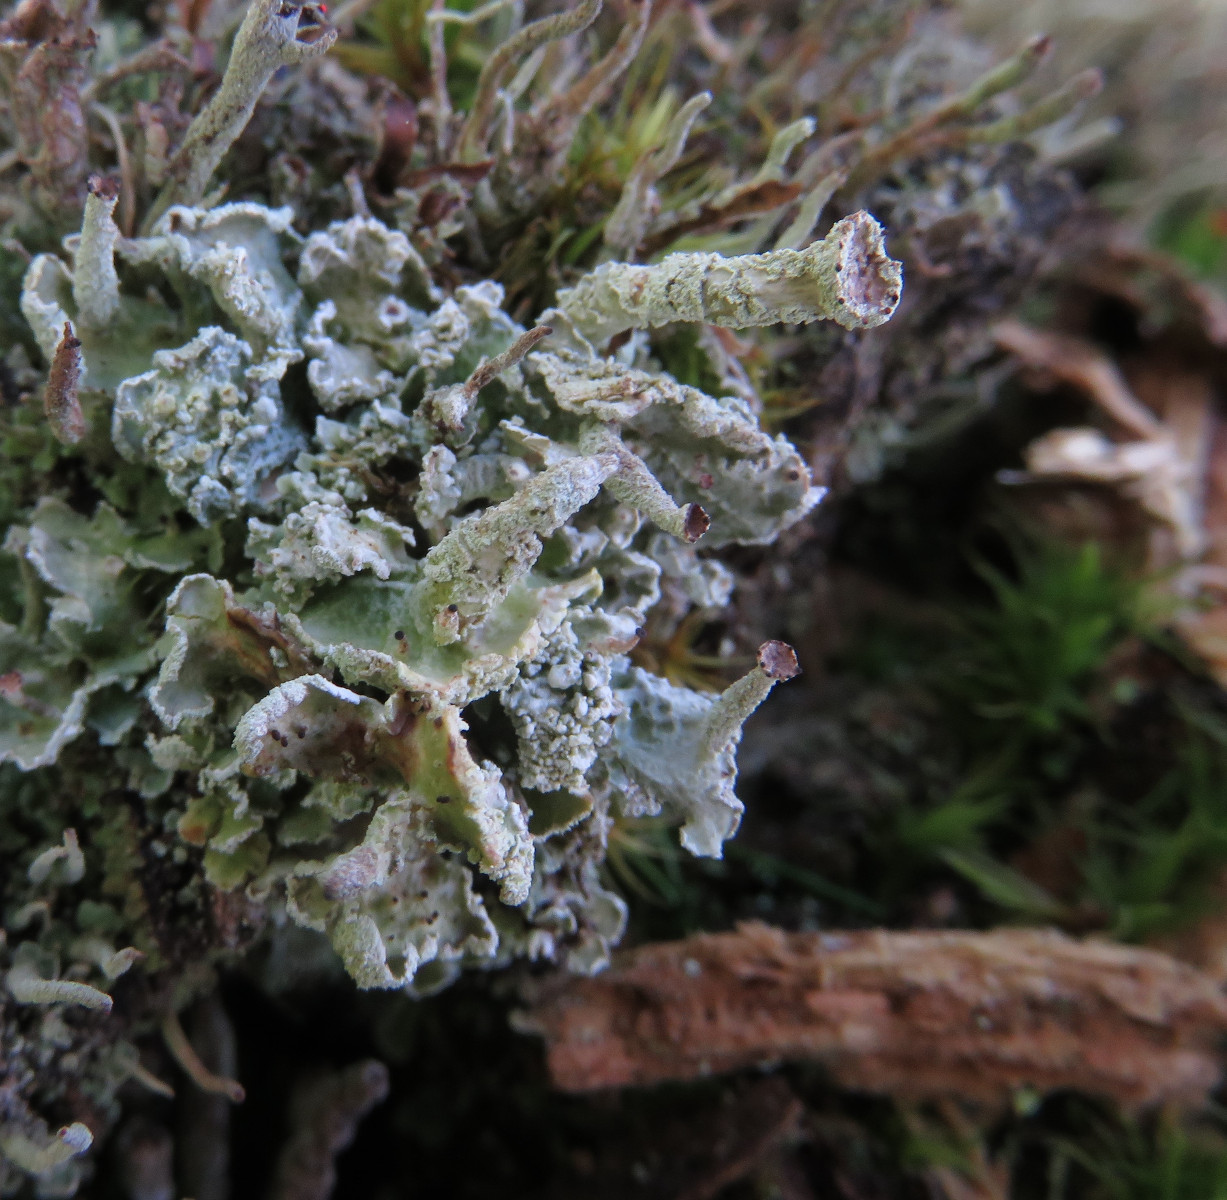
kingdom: Fungi
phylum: Ascomycota
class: Lecanoromycetes
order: Lecanorales
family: Cladoniaceae
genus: Cladonia
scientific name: Cladonia digitata
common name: finger-bægerlav
